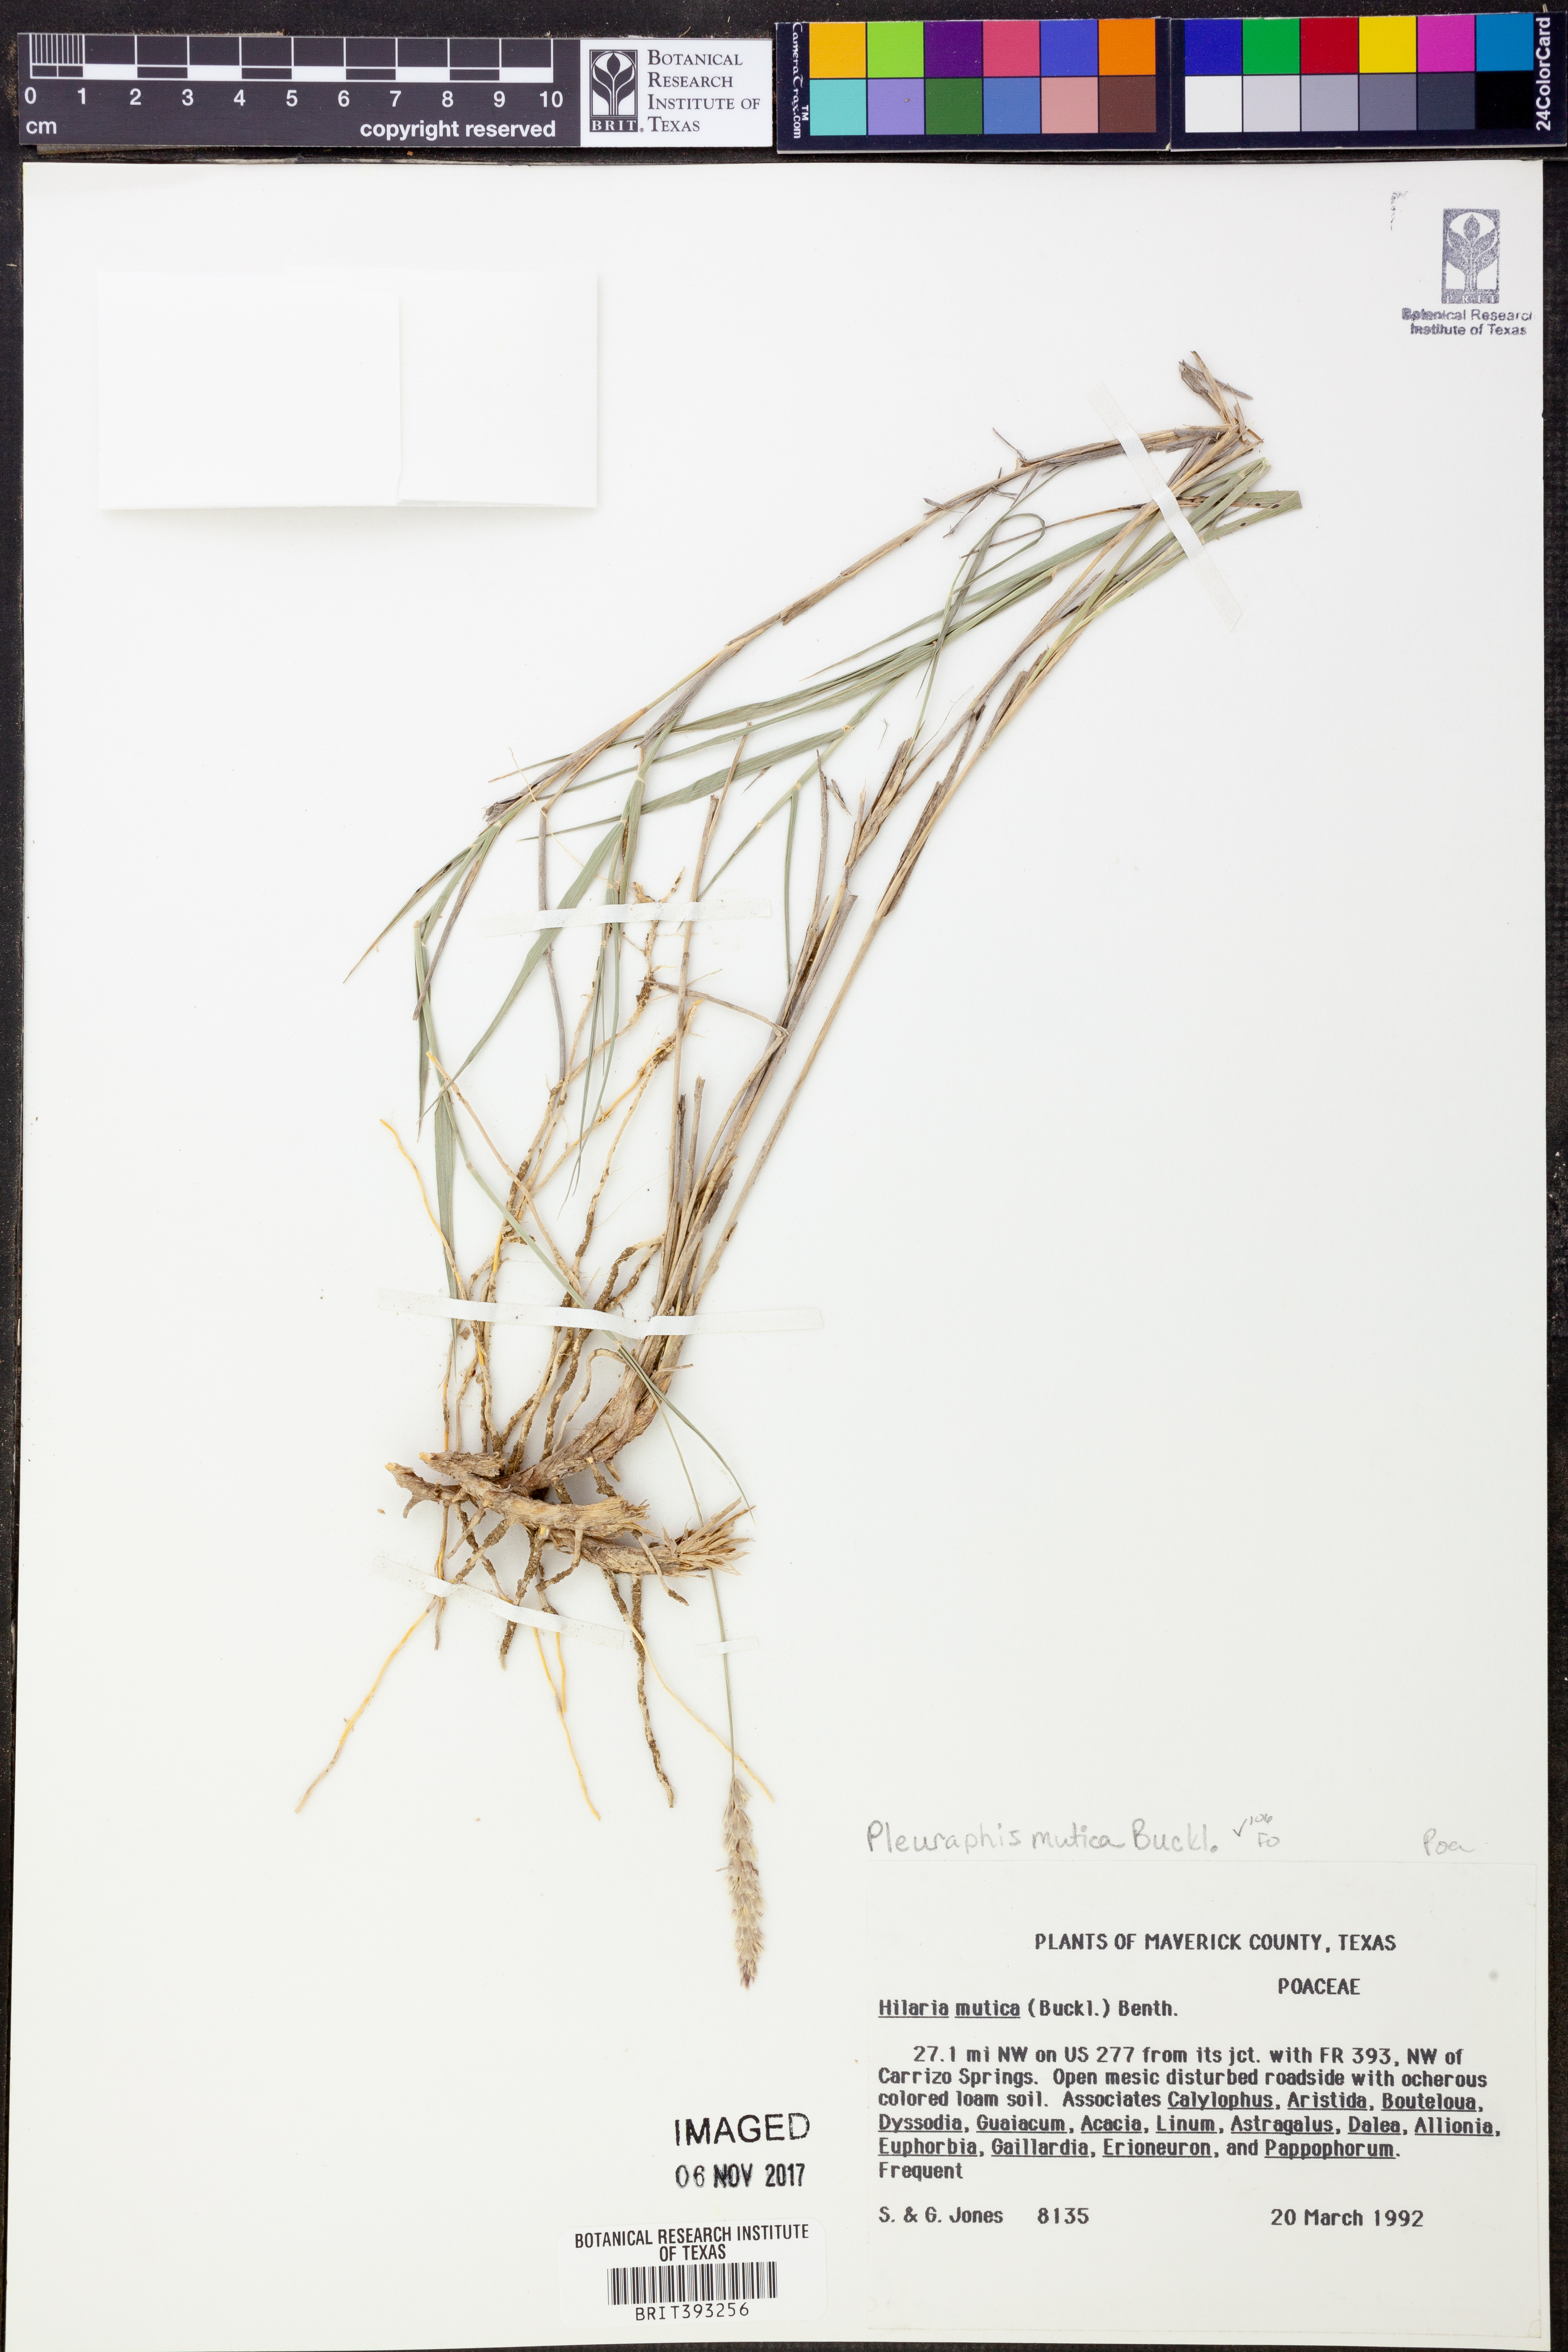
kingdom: Plantae
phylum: Tracheophyta
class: Liliopsida
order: Poales
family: Poaceae
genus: Hilaria
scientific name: Hilaria mutica
